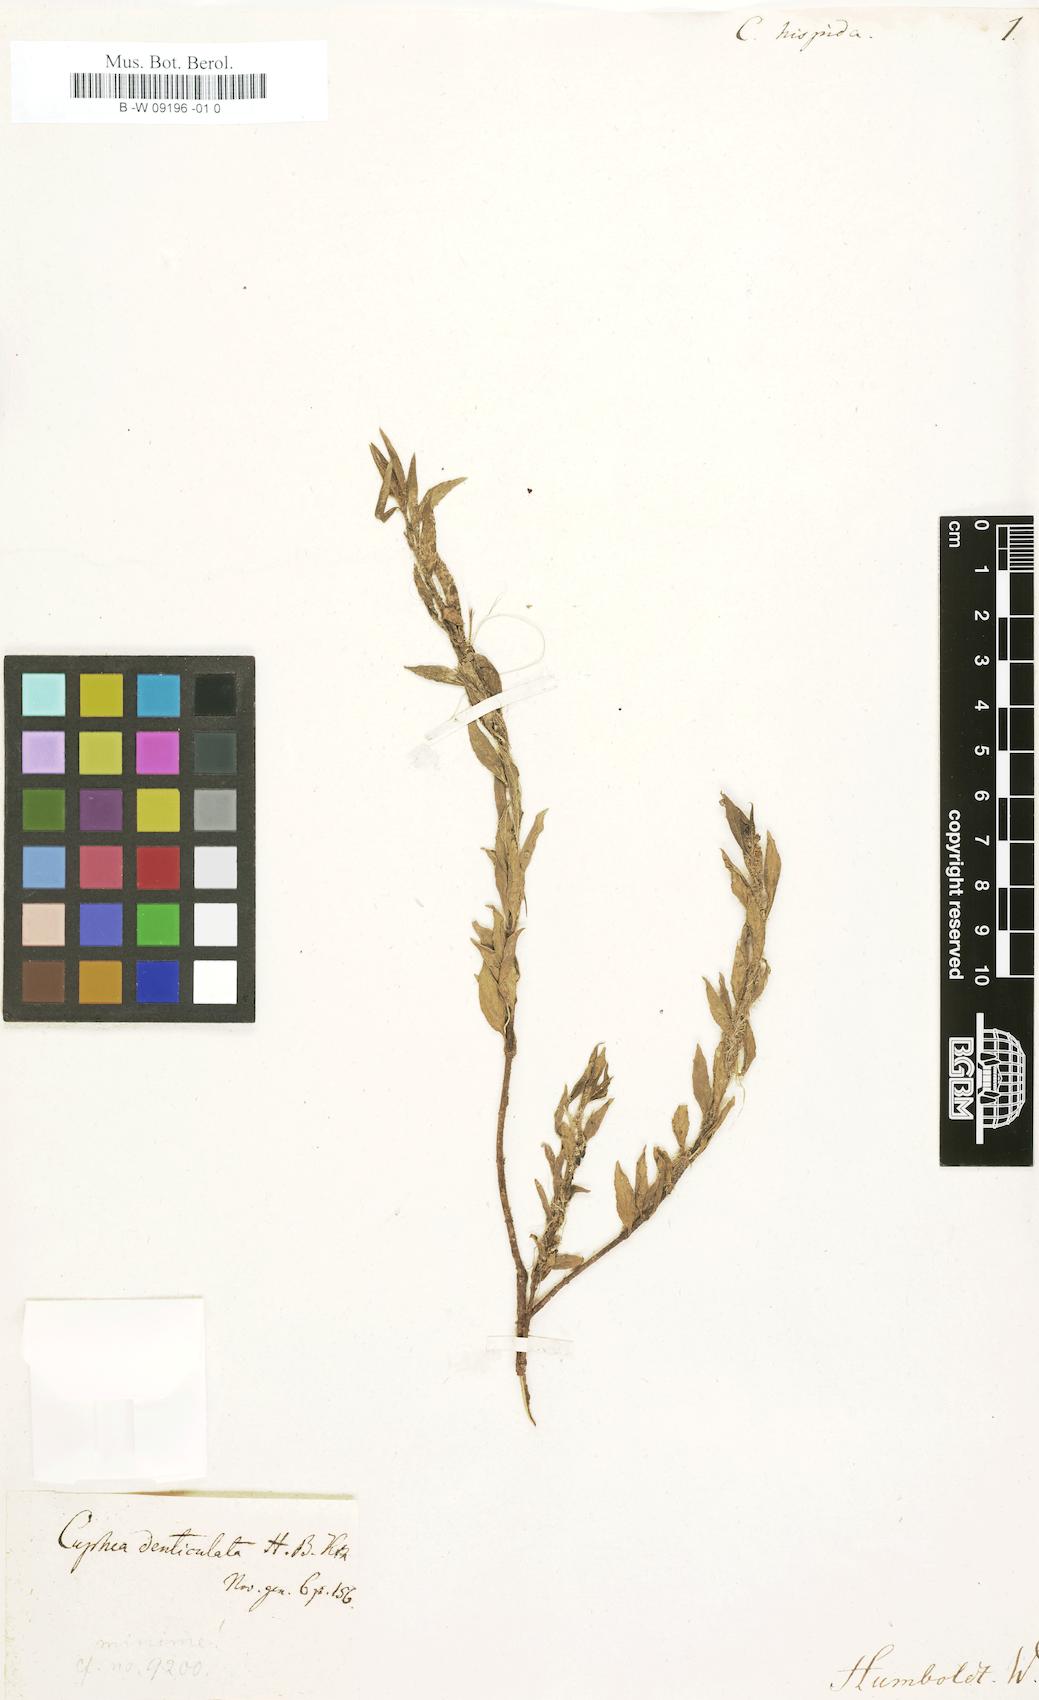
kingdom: Plantae
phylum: Tracheophyta
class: Magnoliopsida
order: Myrtales
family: Lythraceae
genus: Cuphea
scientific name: Cuphea sessiliflora
